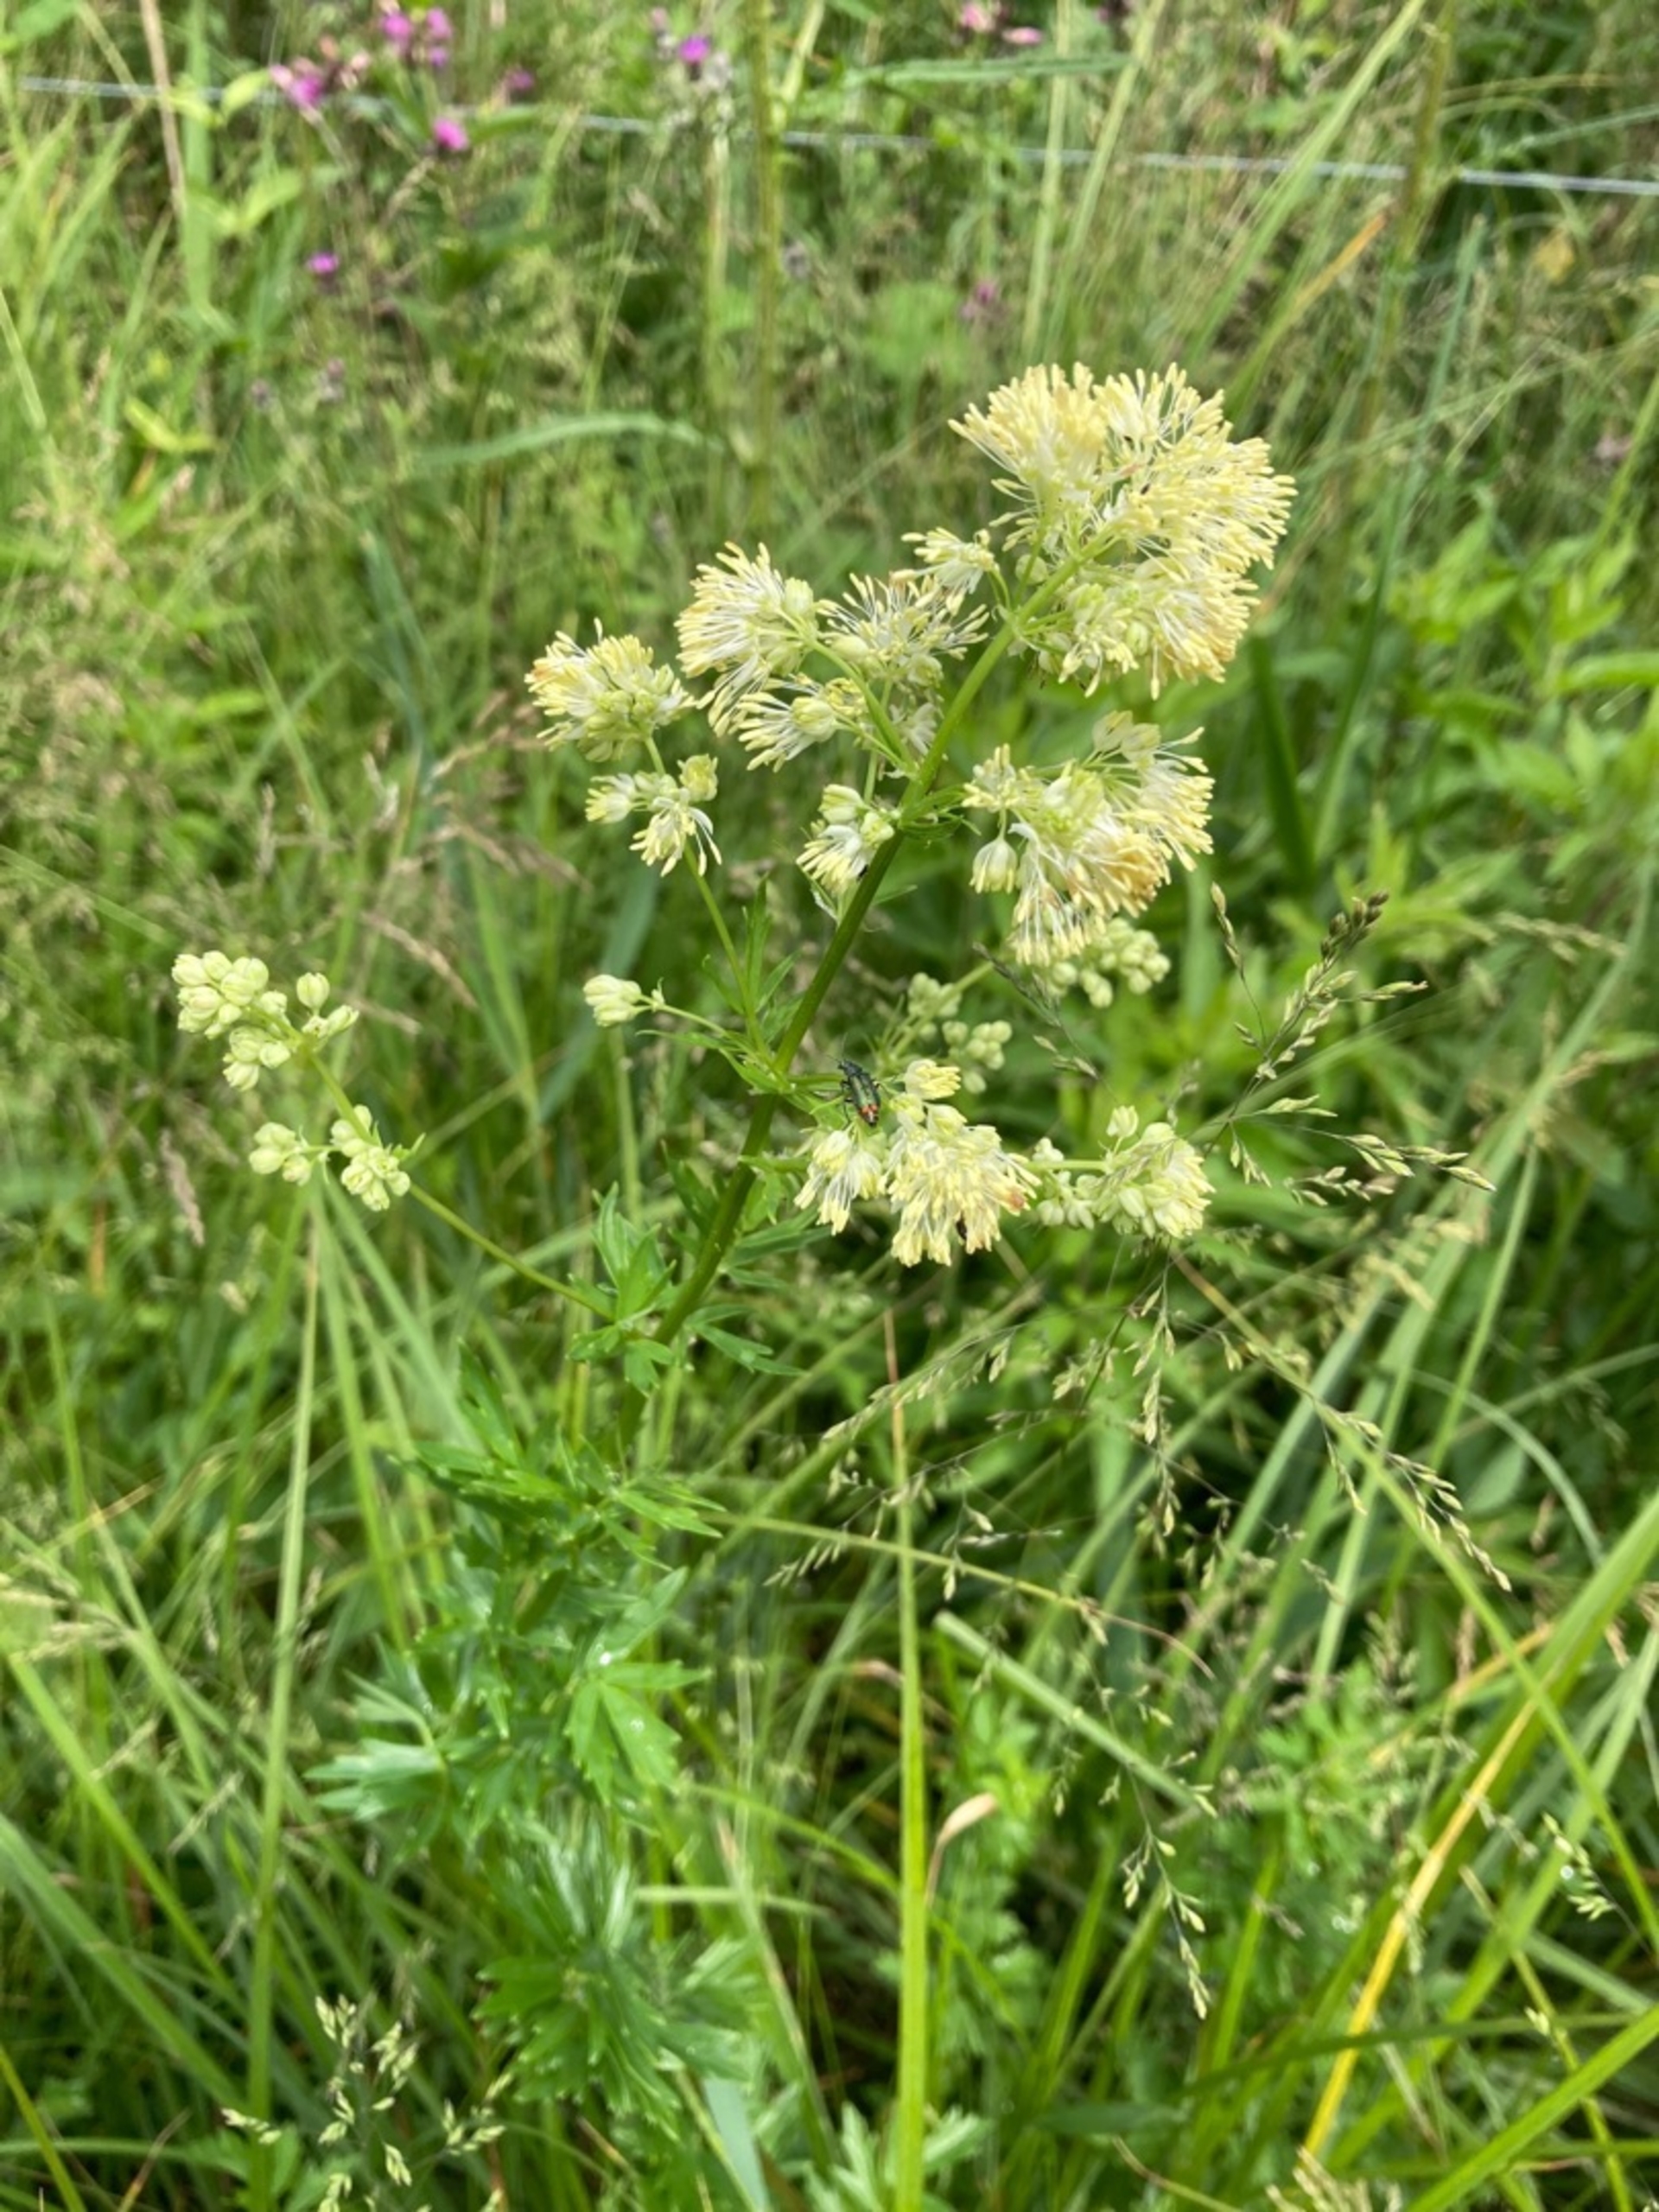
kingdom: Plantae
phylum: Tracheophyta
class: Magnoliopsida
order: Ranunculales
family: Ranunculaceae
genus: Thalictrum
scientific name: Thalictrum flavum
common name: Gul frøstjerne
